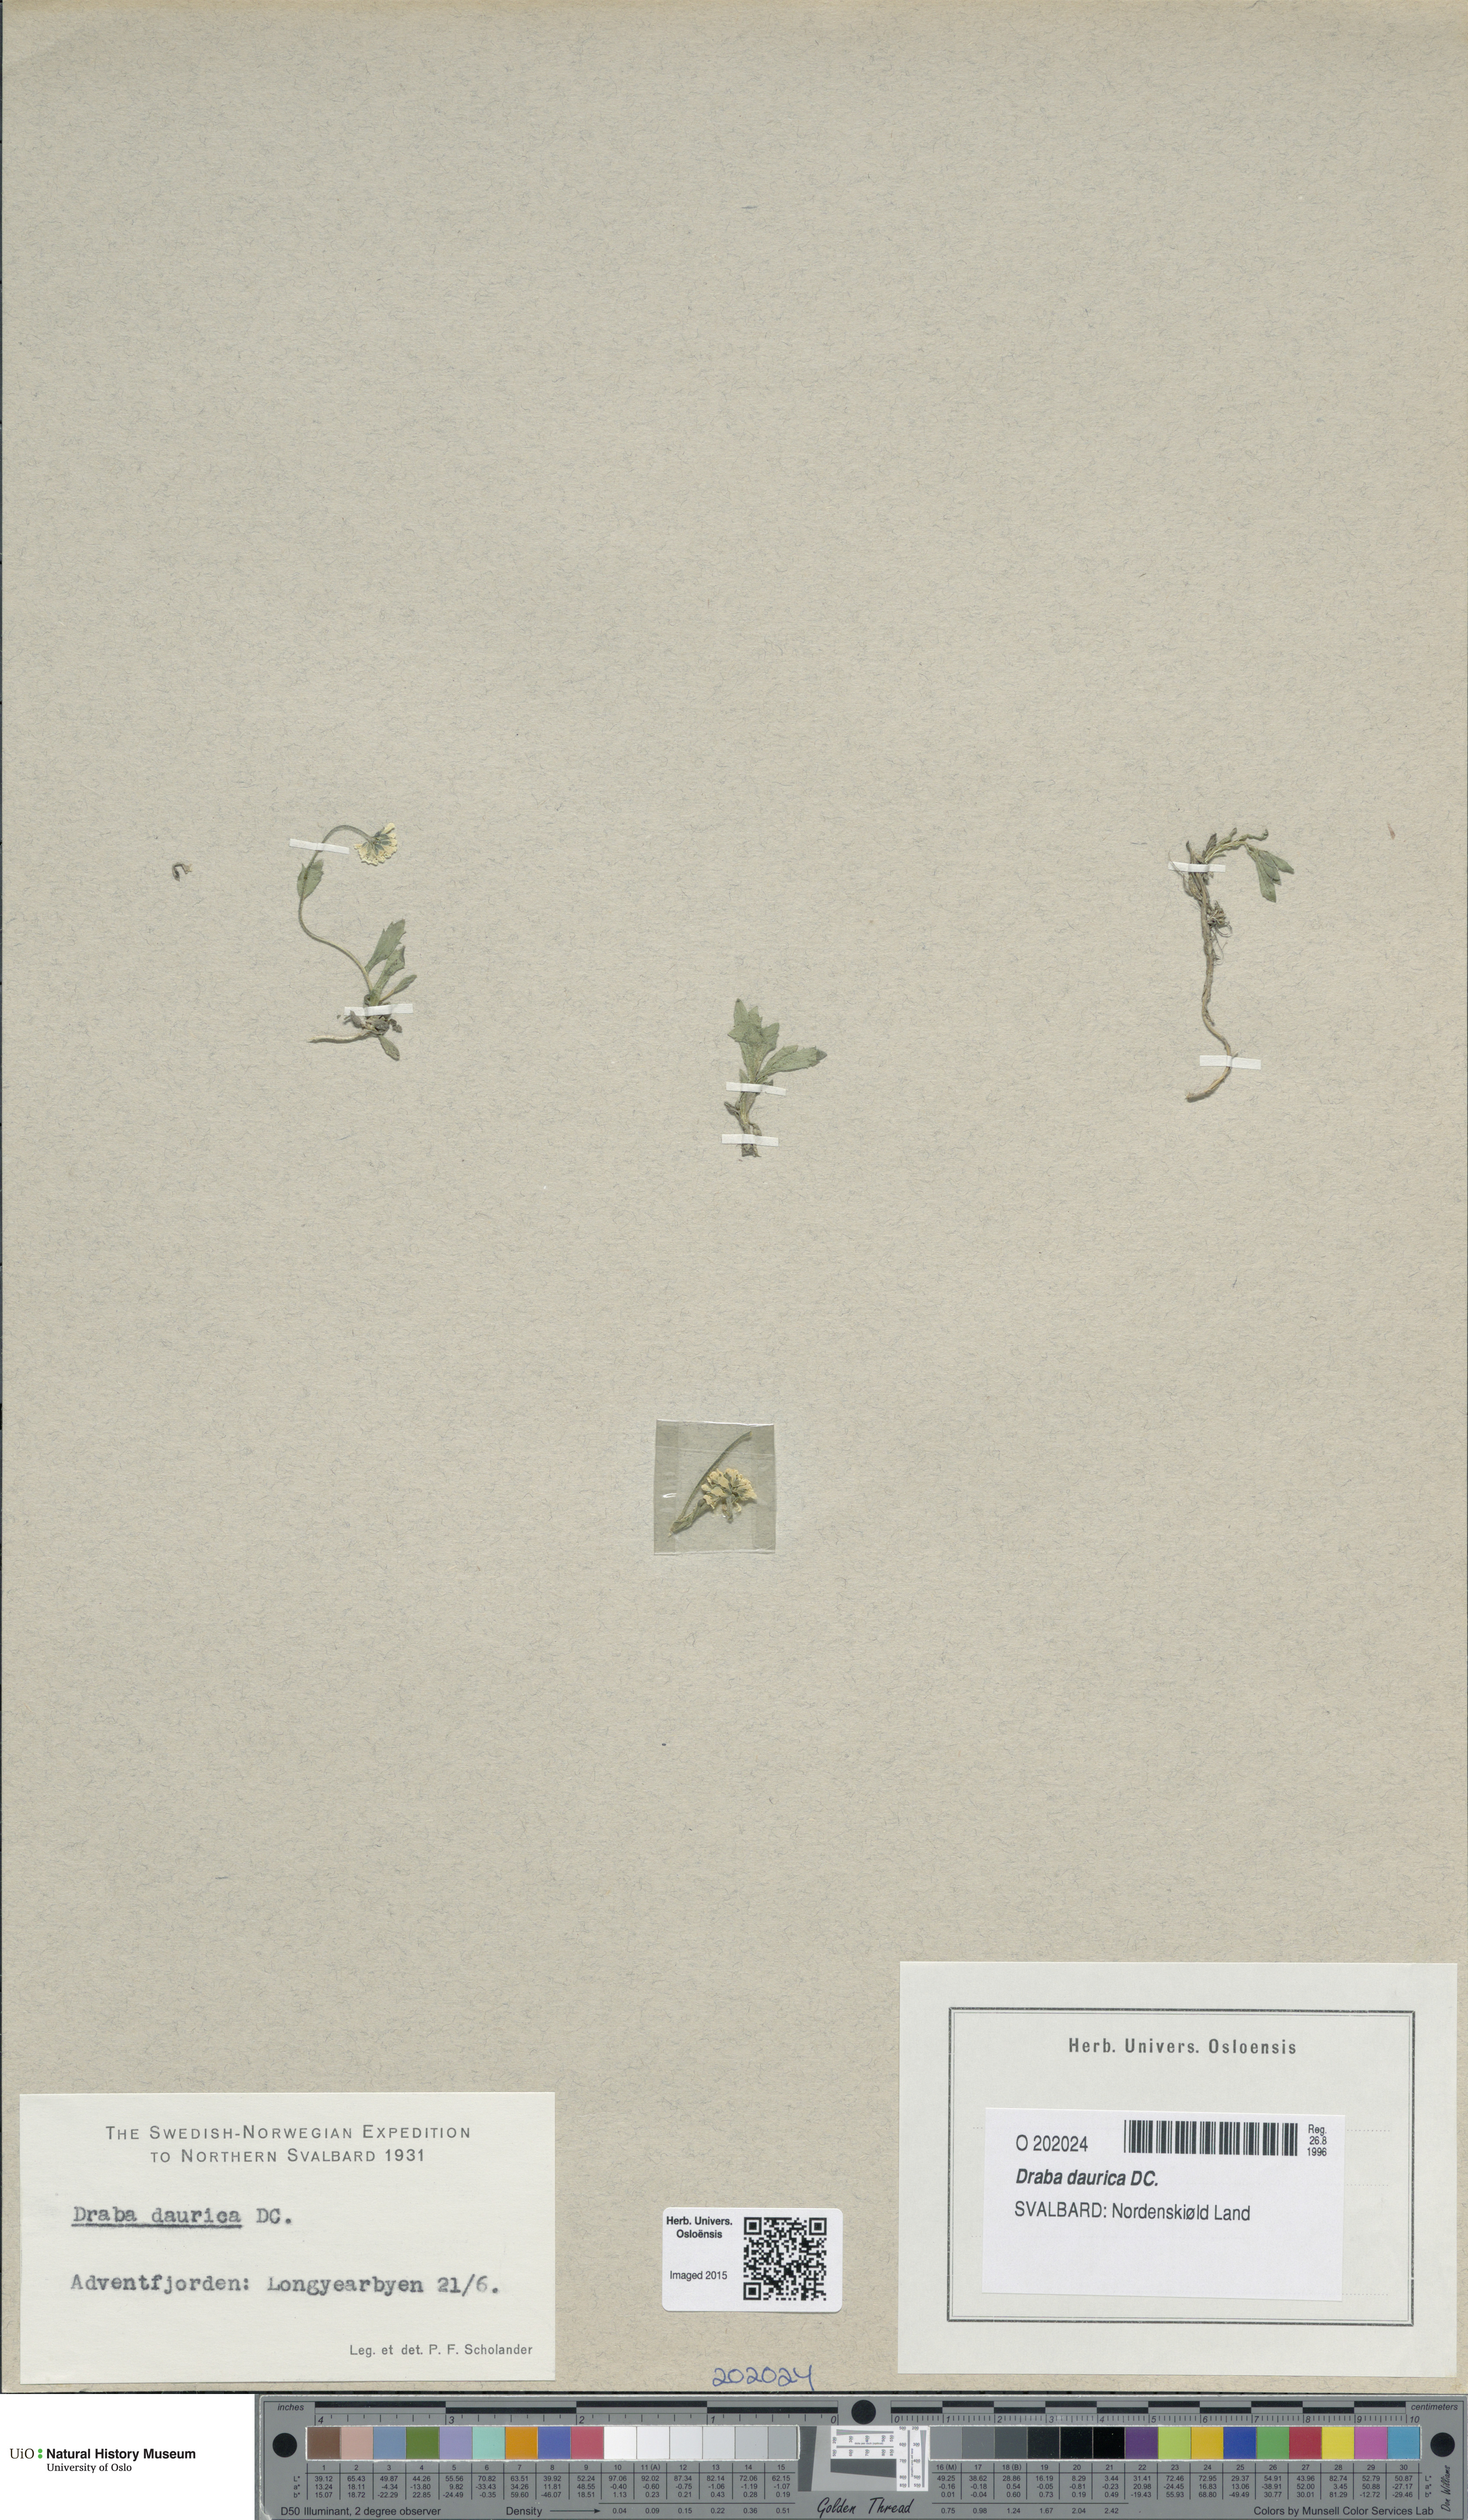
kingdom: Plantae
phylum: Tracheophyta
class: Magnoliopsida
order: Brassicales
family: Brassicaceae
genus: Draba
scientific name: Draba glabella
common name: Glaucous draba
